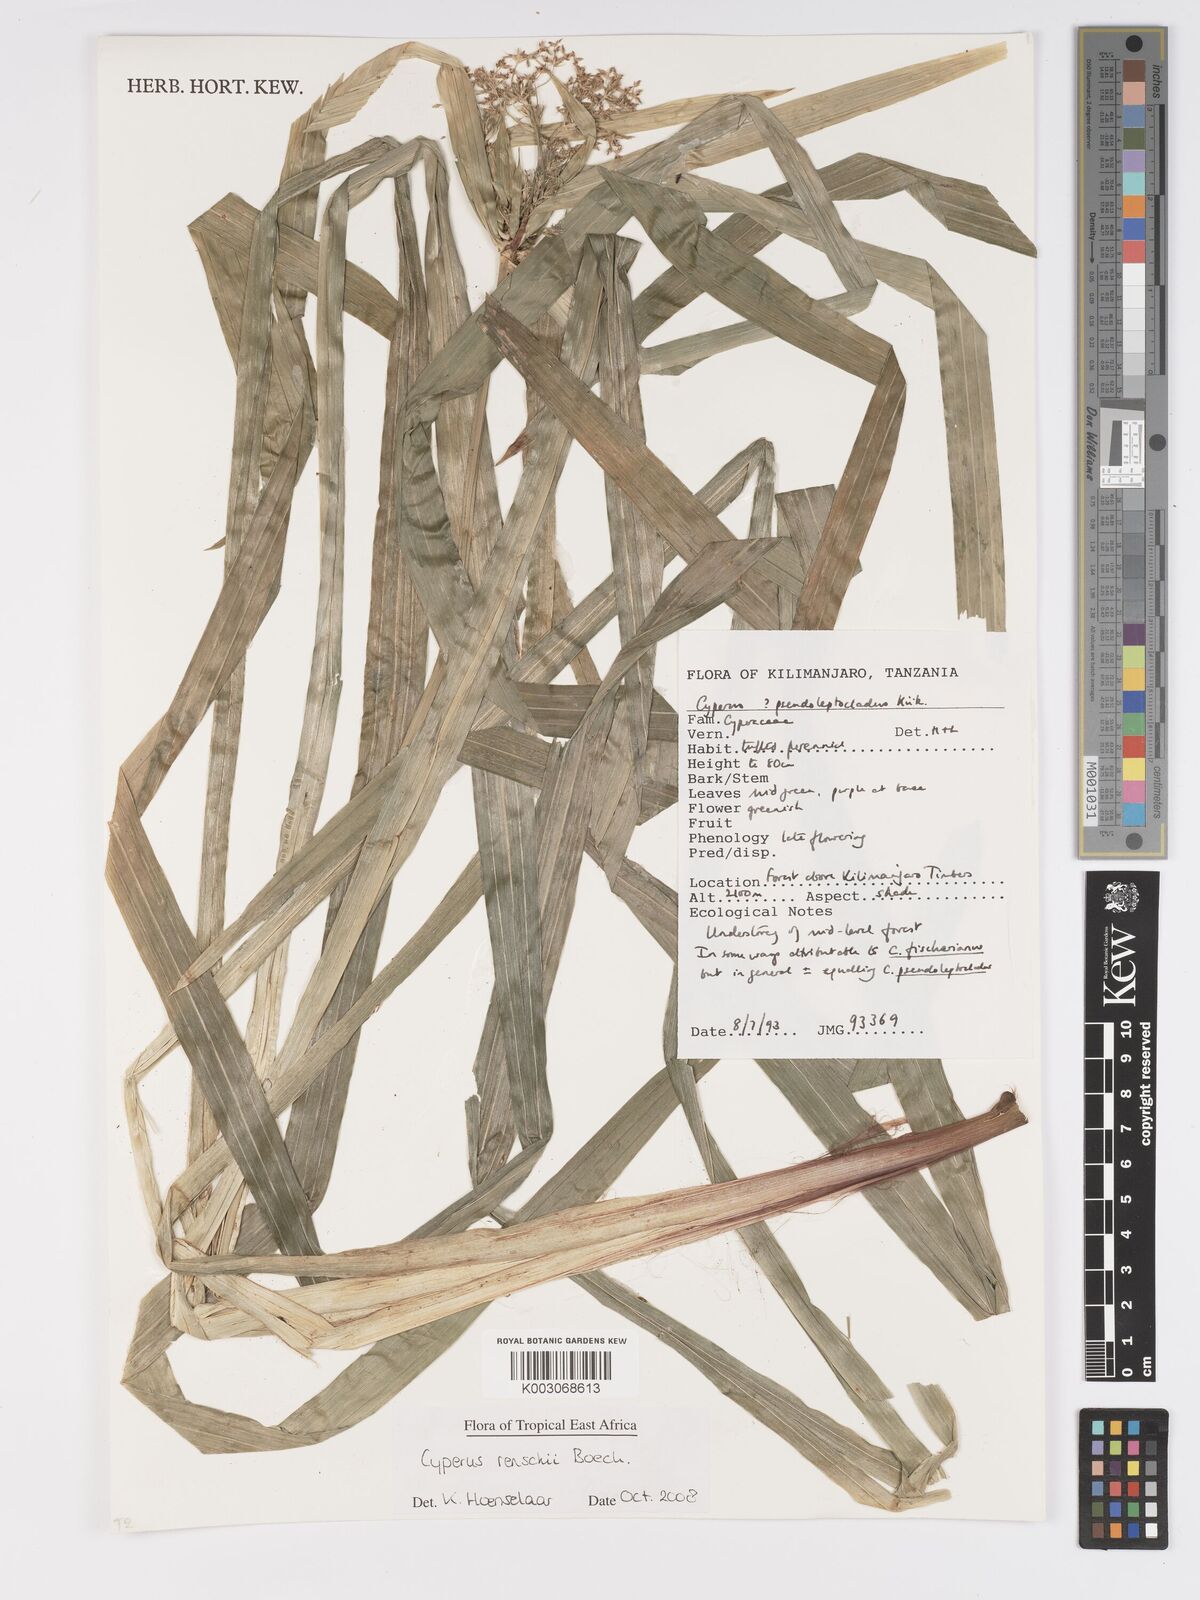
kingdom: Plantae
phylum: Tracheophyta
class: Liliopsida
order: Poales
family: Cyperaceae
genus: Cyperus
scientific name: Cyperus renschii
